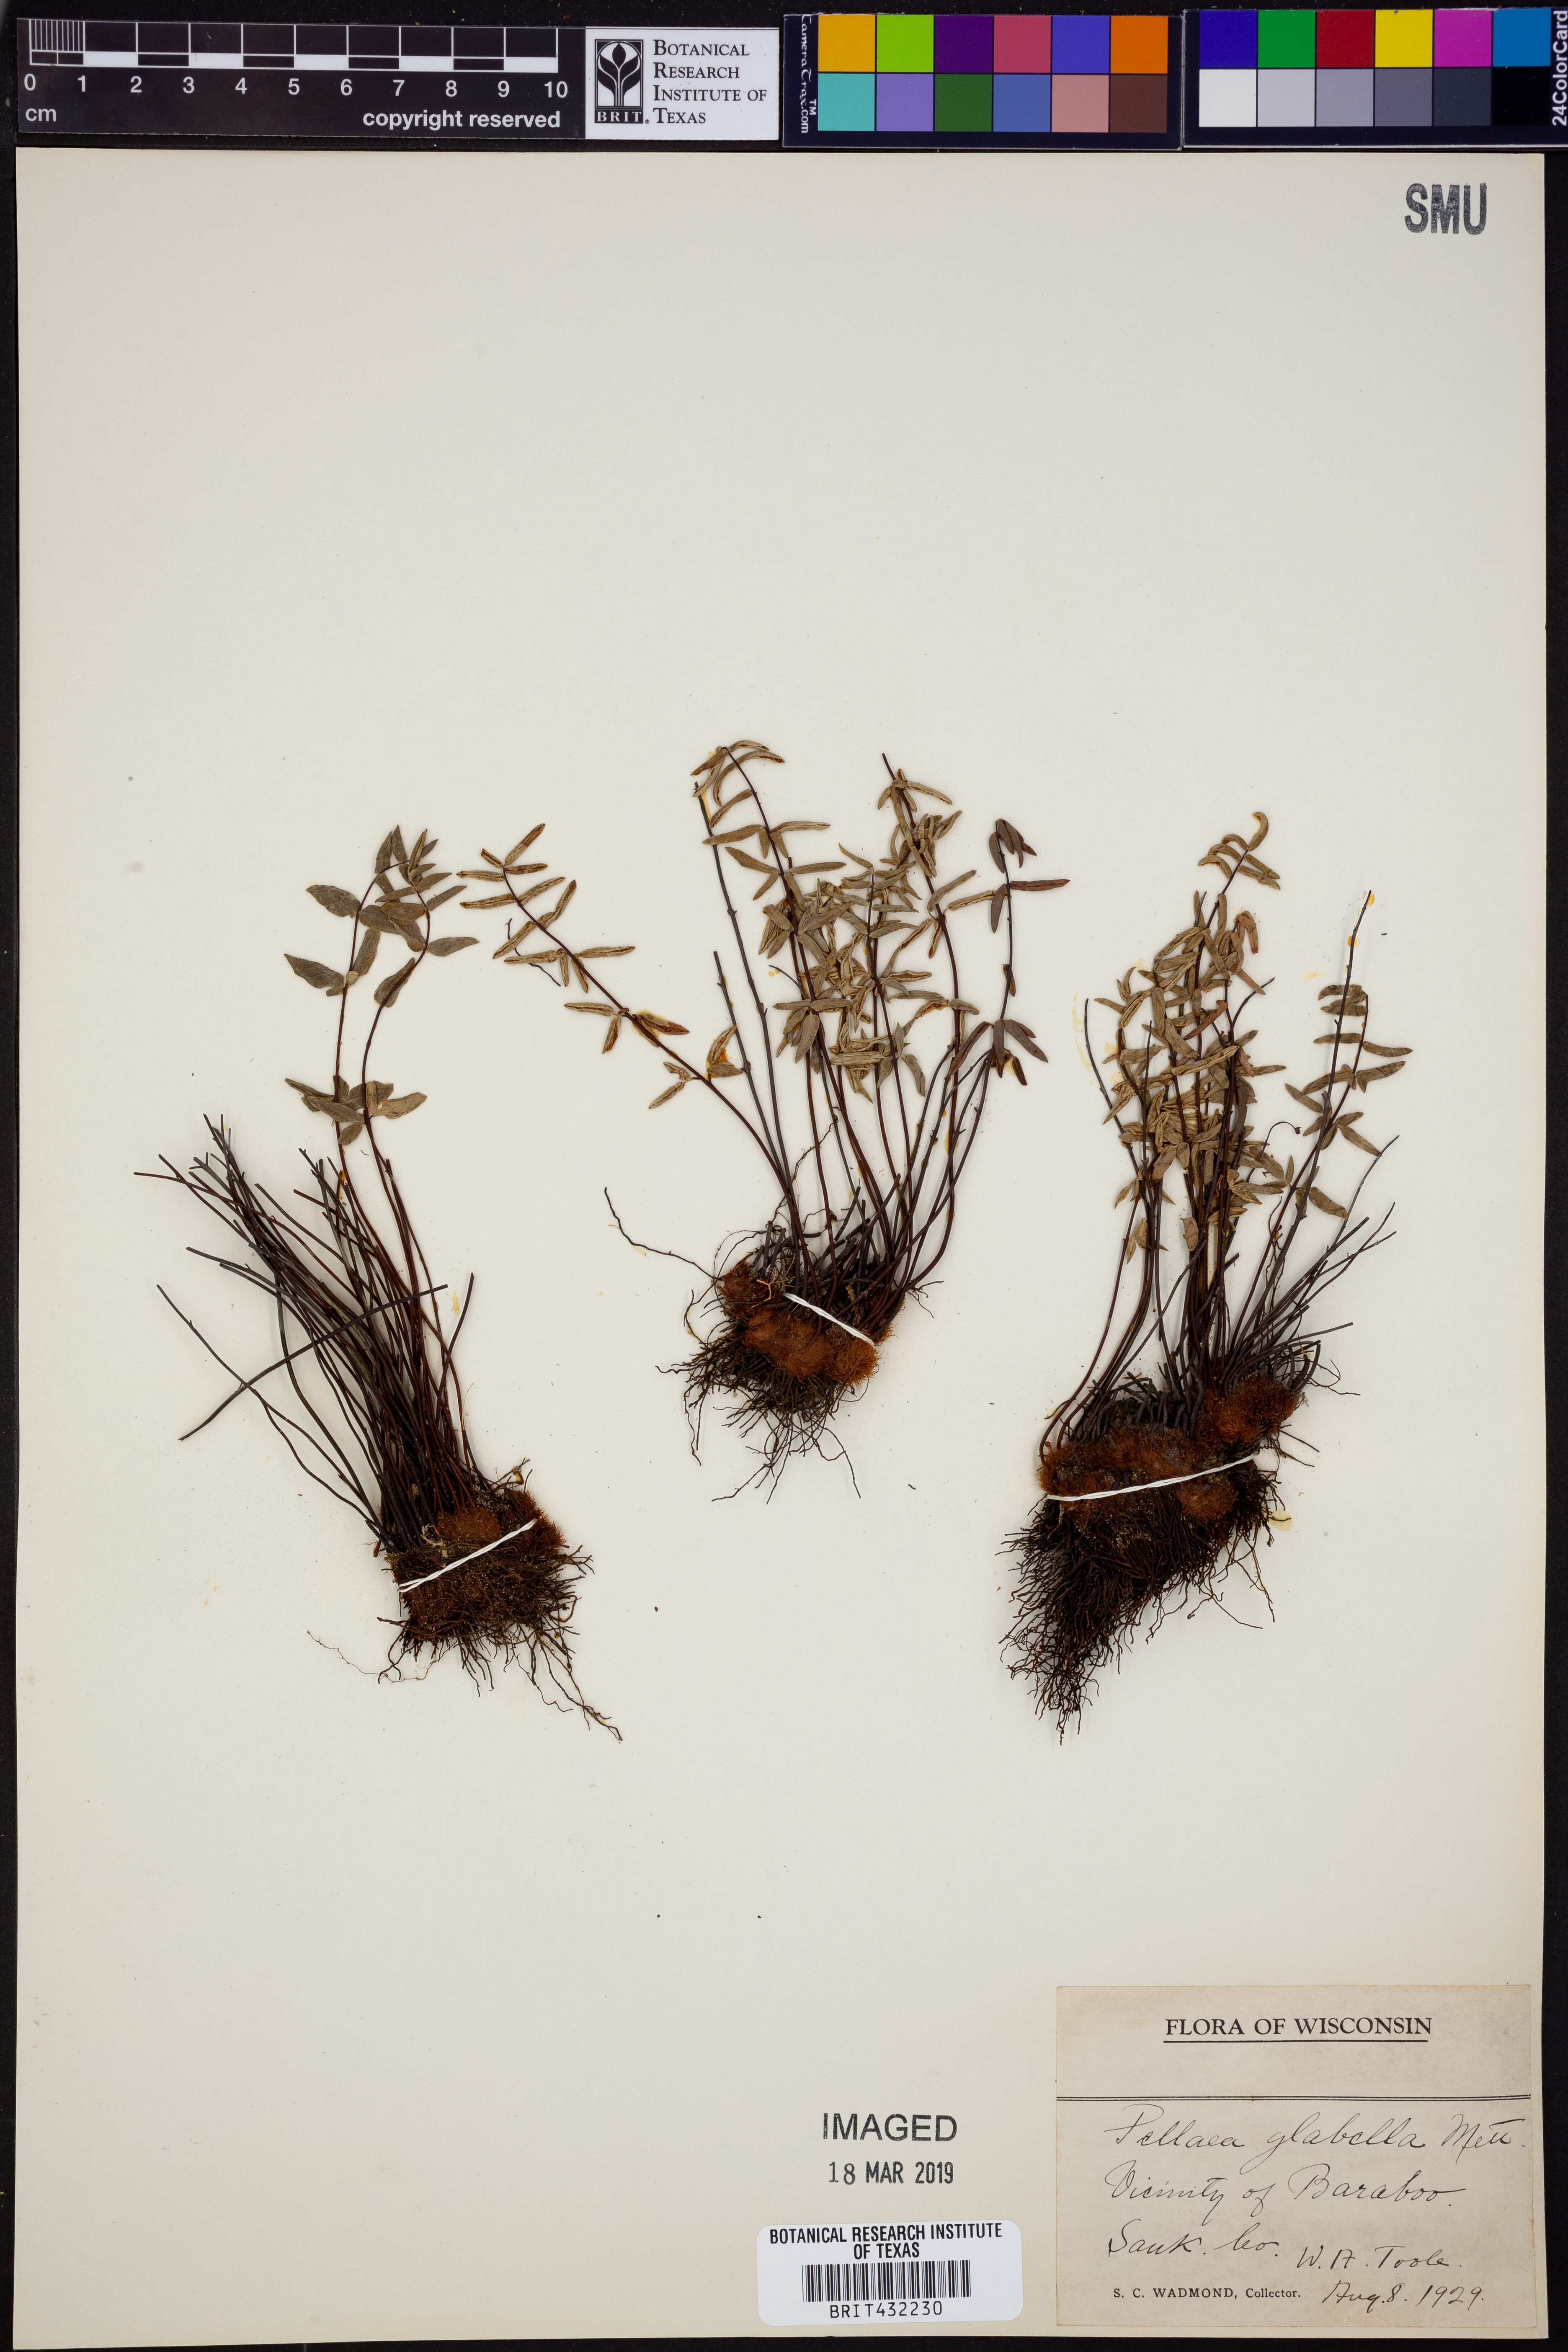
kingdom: Plantae
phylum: Tracheophyta
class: Polypodiopsida
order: Polypodiales
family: Pteridaceae
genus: Pellaea
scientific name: Pellaea glabella
